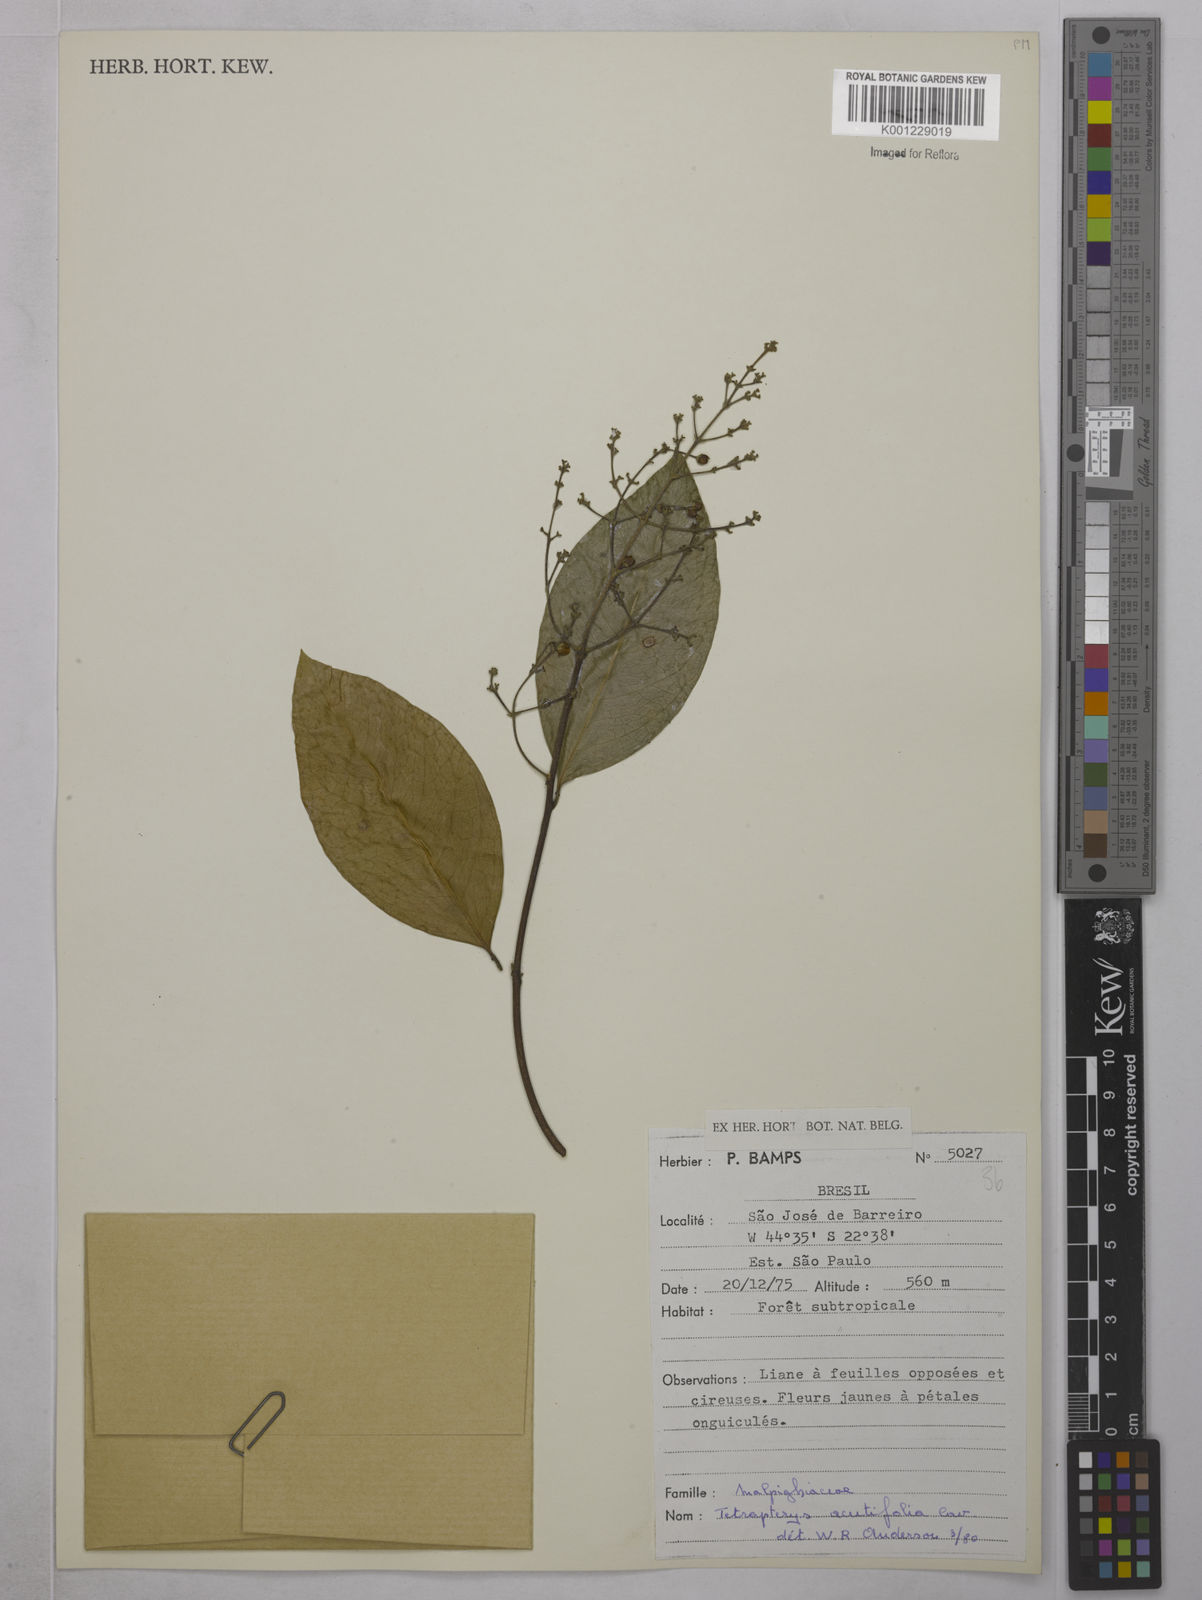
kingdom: Plantae
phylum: Tracheophyta
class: Magnoliopsida
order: Malpighiales
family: Malpighiaceae
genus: Niedenzuella
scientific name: Niedenzuella acutifolia
